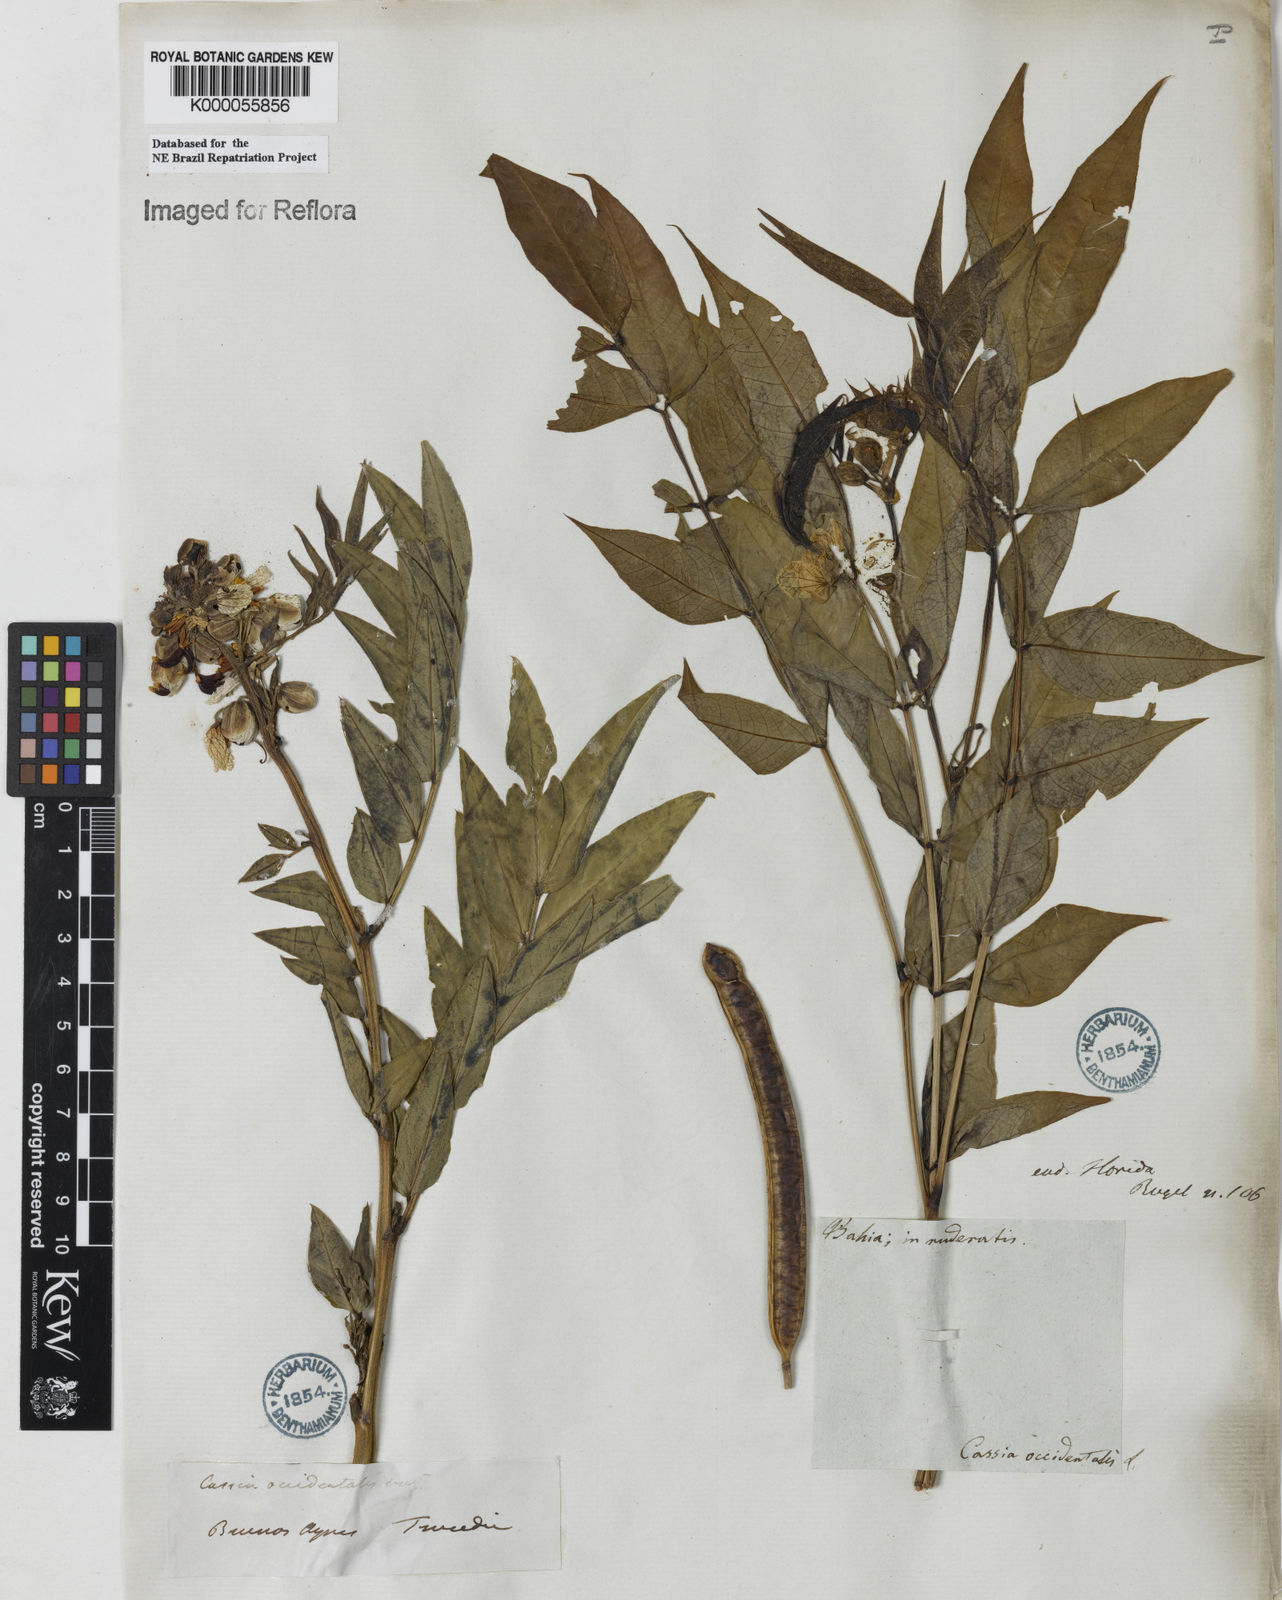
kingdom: Plantae
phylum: Tracheophyta
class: Magnoliopsida
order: Fabales
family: Fabaceae
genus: Senna
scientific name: Senna occidentalis
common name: Septicweed
